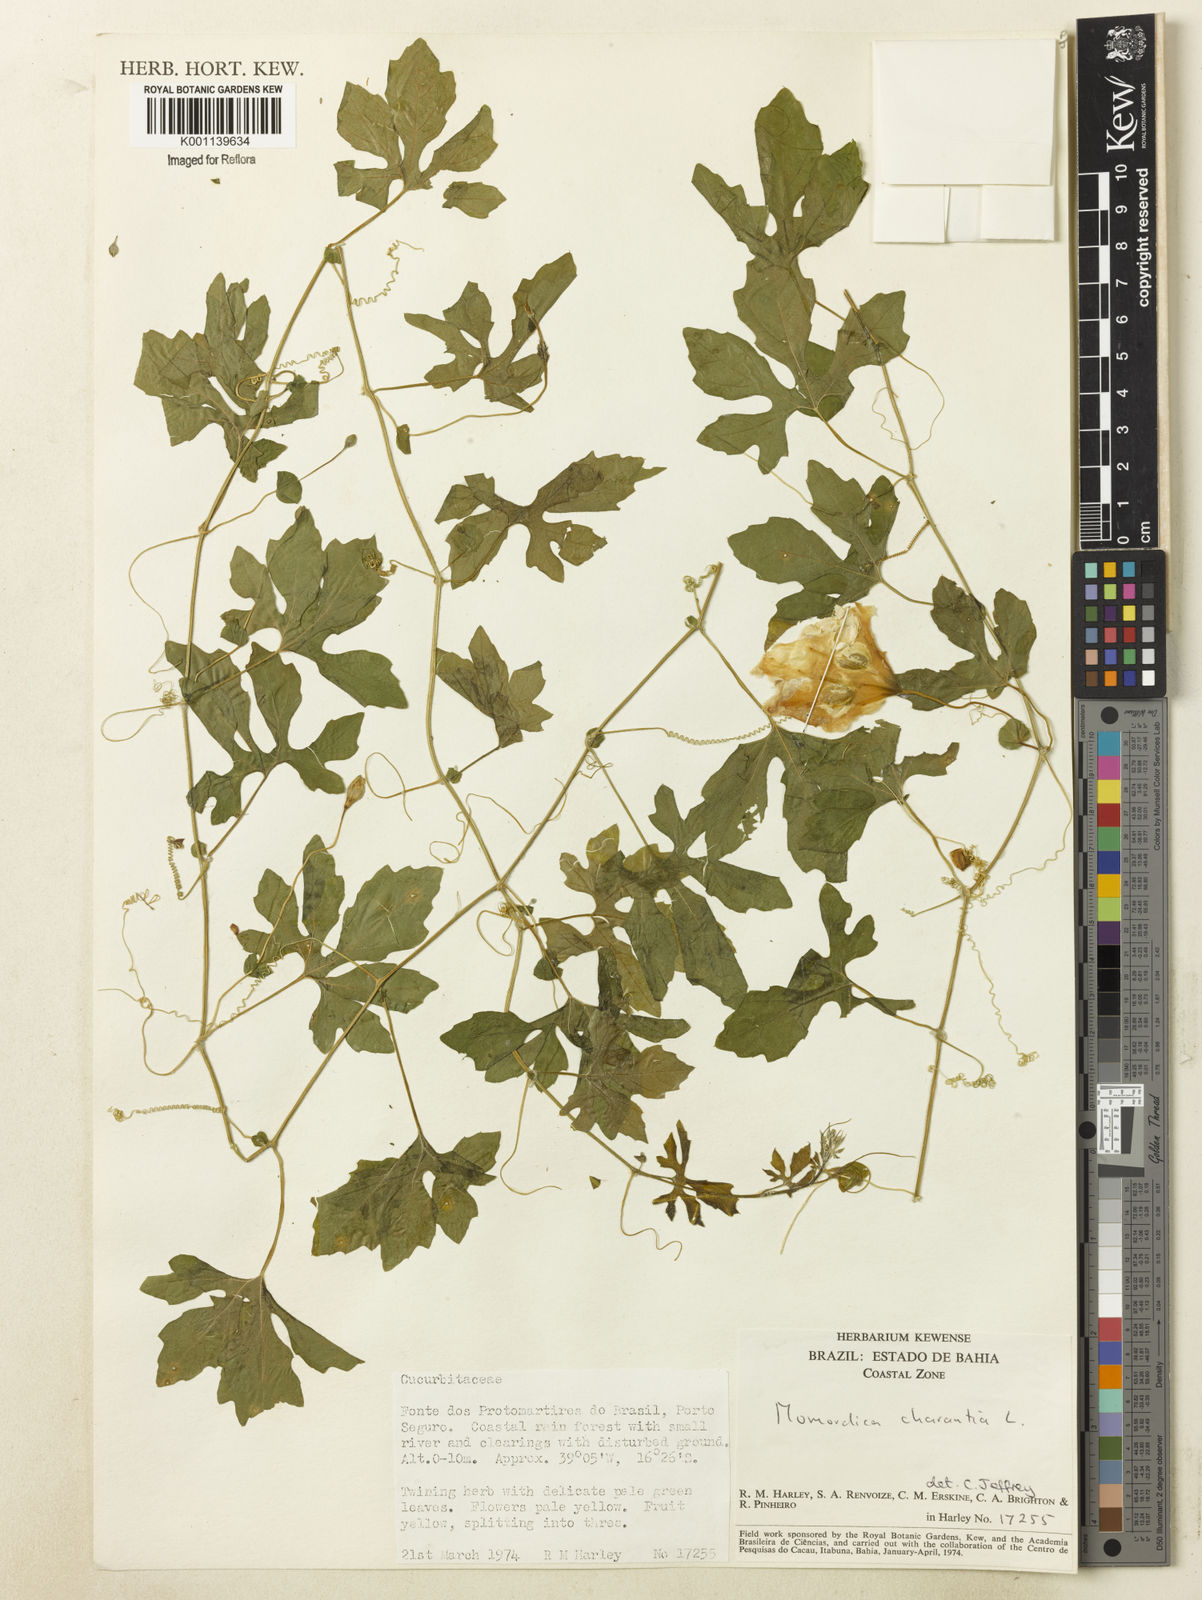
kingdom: Plantae
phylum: Tracheophyta
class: Magnoliopsida
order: Cucurbitales
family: Cucurbitaceae
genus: Momordica
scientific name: Momordica charantia
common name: Balsampear
